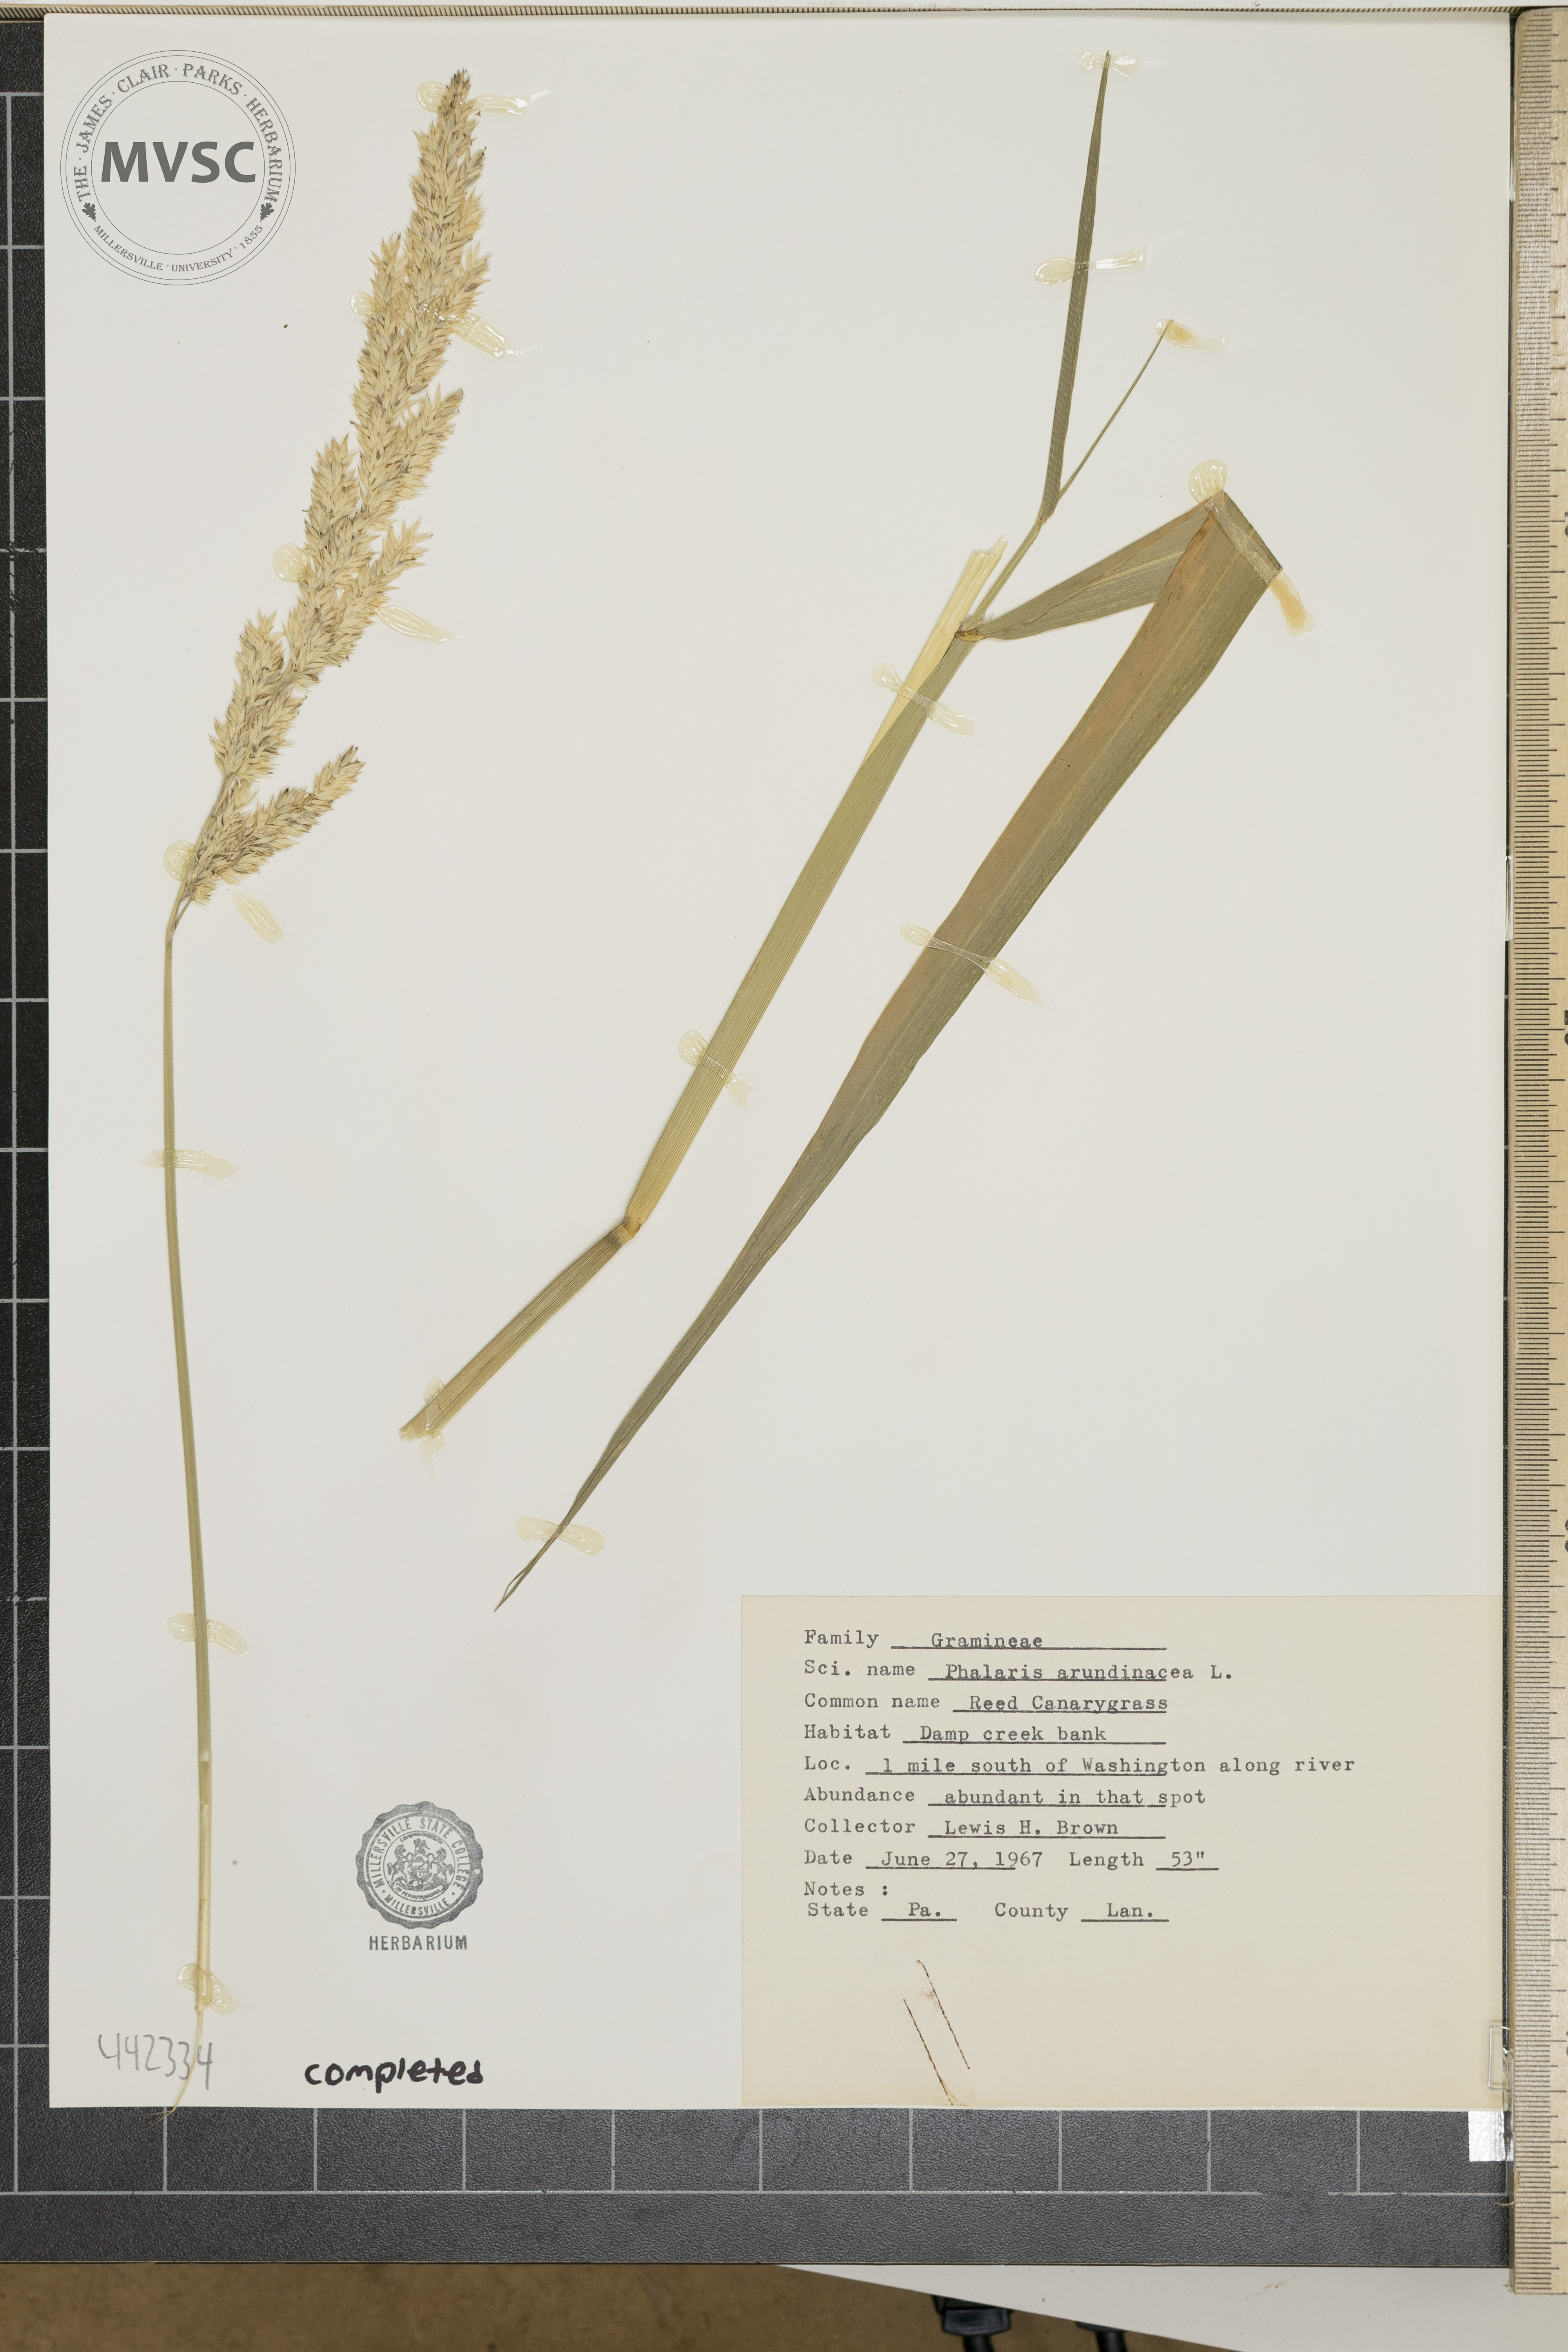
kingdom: Plantae
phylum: Tracheophyta
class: Liliopsida
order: Poales
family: Poaceae
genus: Phalaris
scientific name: Phalaris arundinacea
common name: Reed canarygrass
